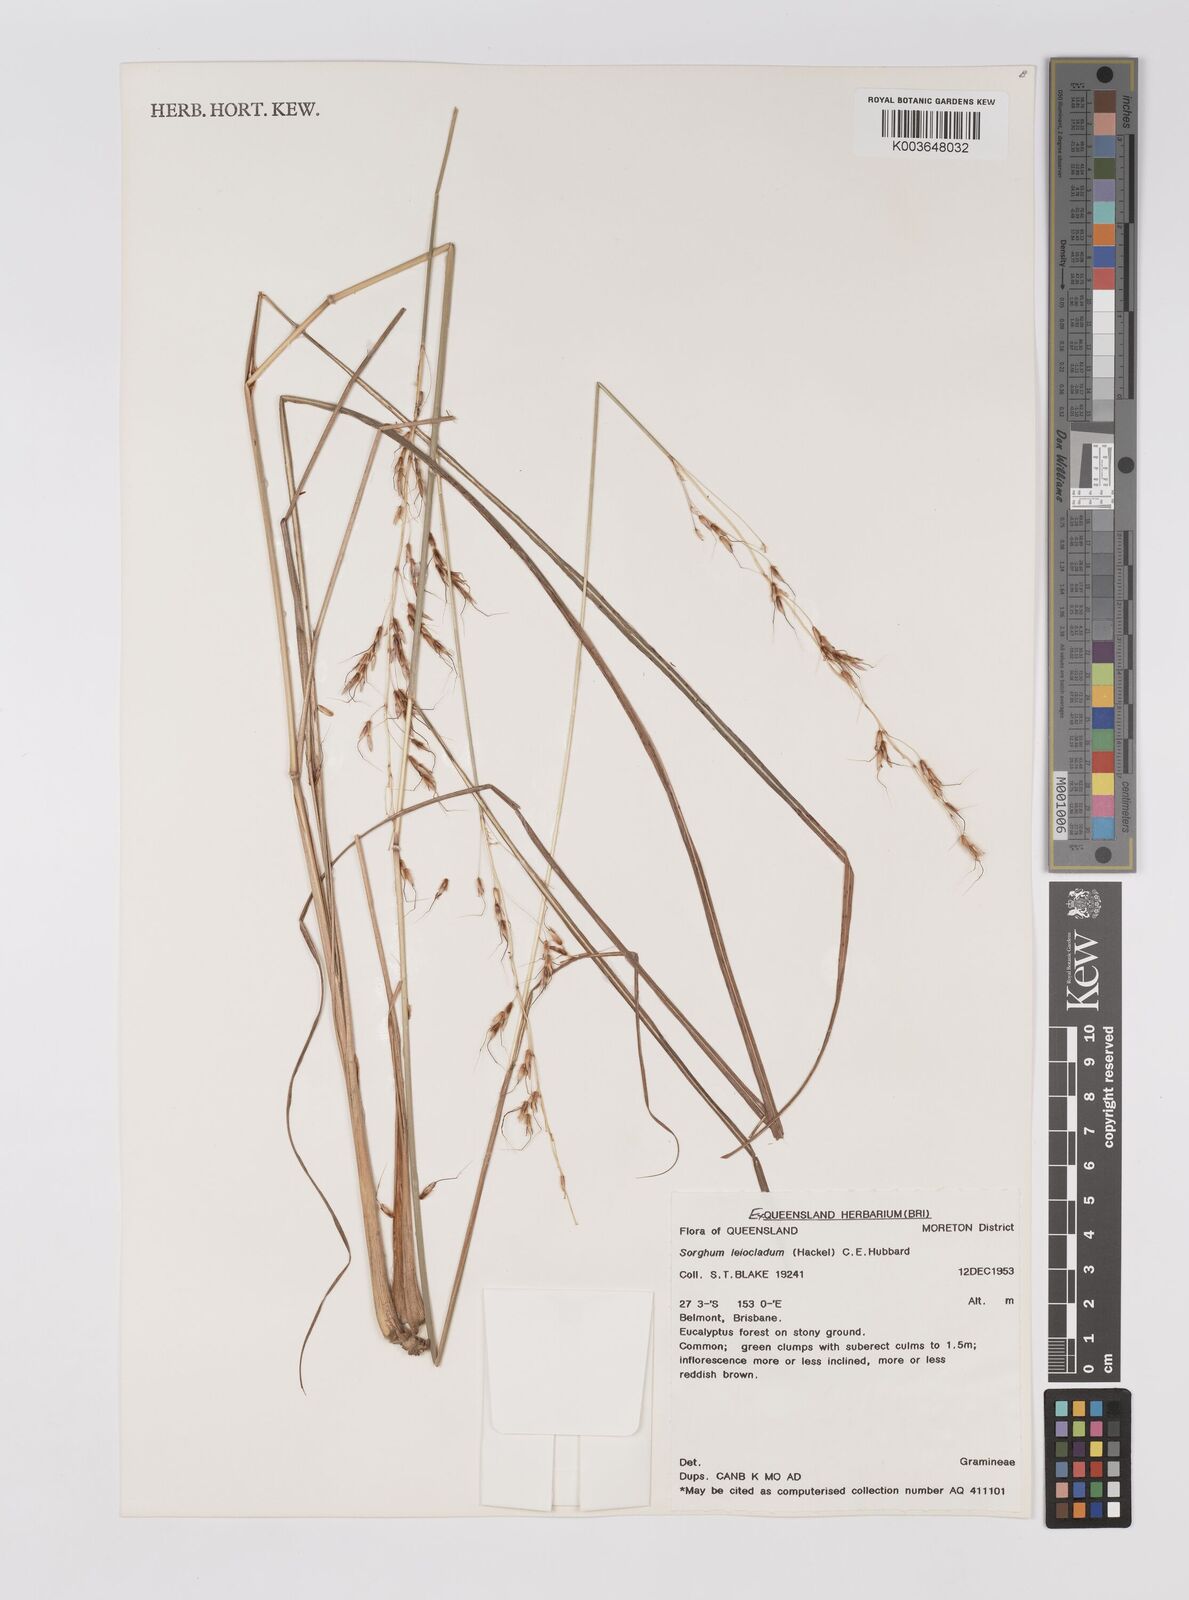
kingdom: Plantae
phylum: Tracheophyta
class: Liliopsida
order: Poales
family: Poaceae
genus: Sarga
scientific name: Sarga leioclada
